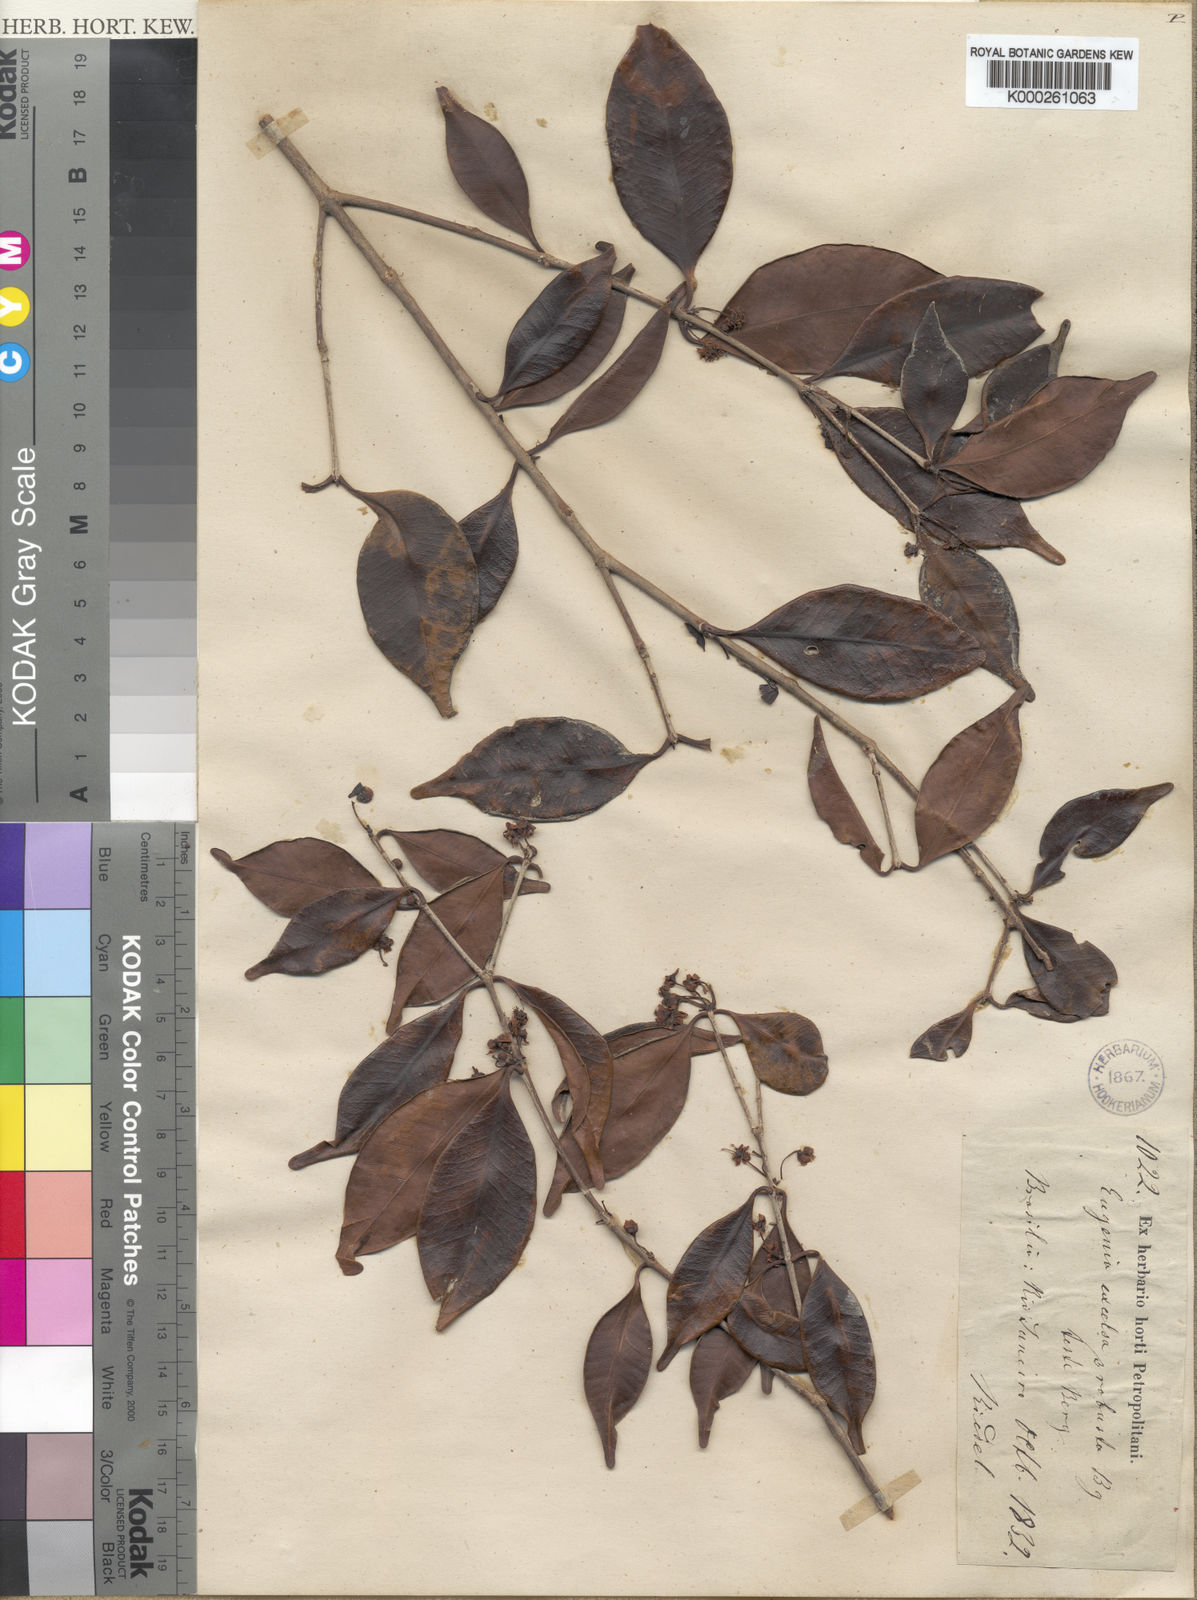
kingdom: Plantae
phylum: Tracheophyta
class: Magnoliopsida
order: Myrtales
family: Myrtaceae
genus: Eugenia
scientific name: Eugenia excelsa
